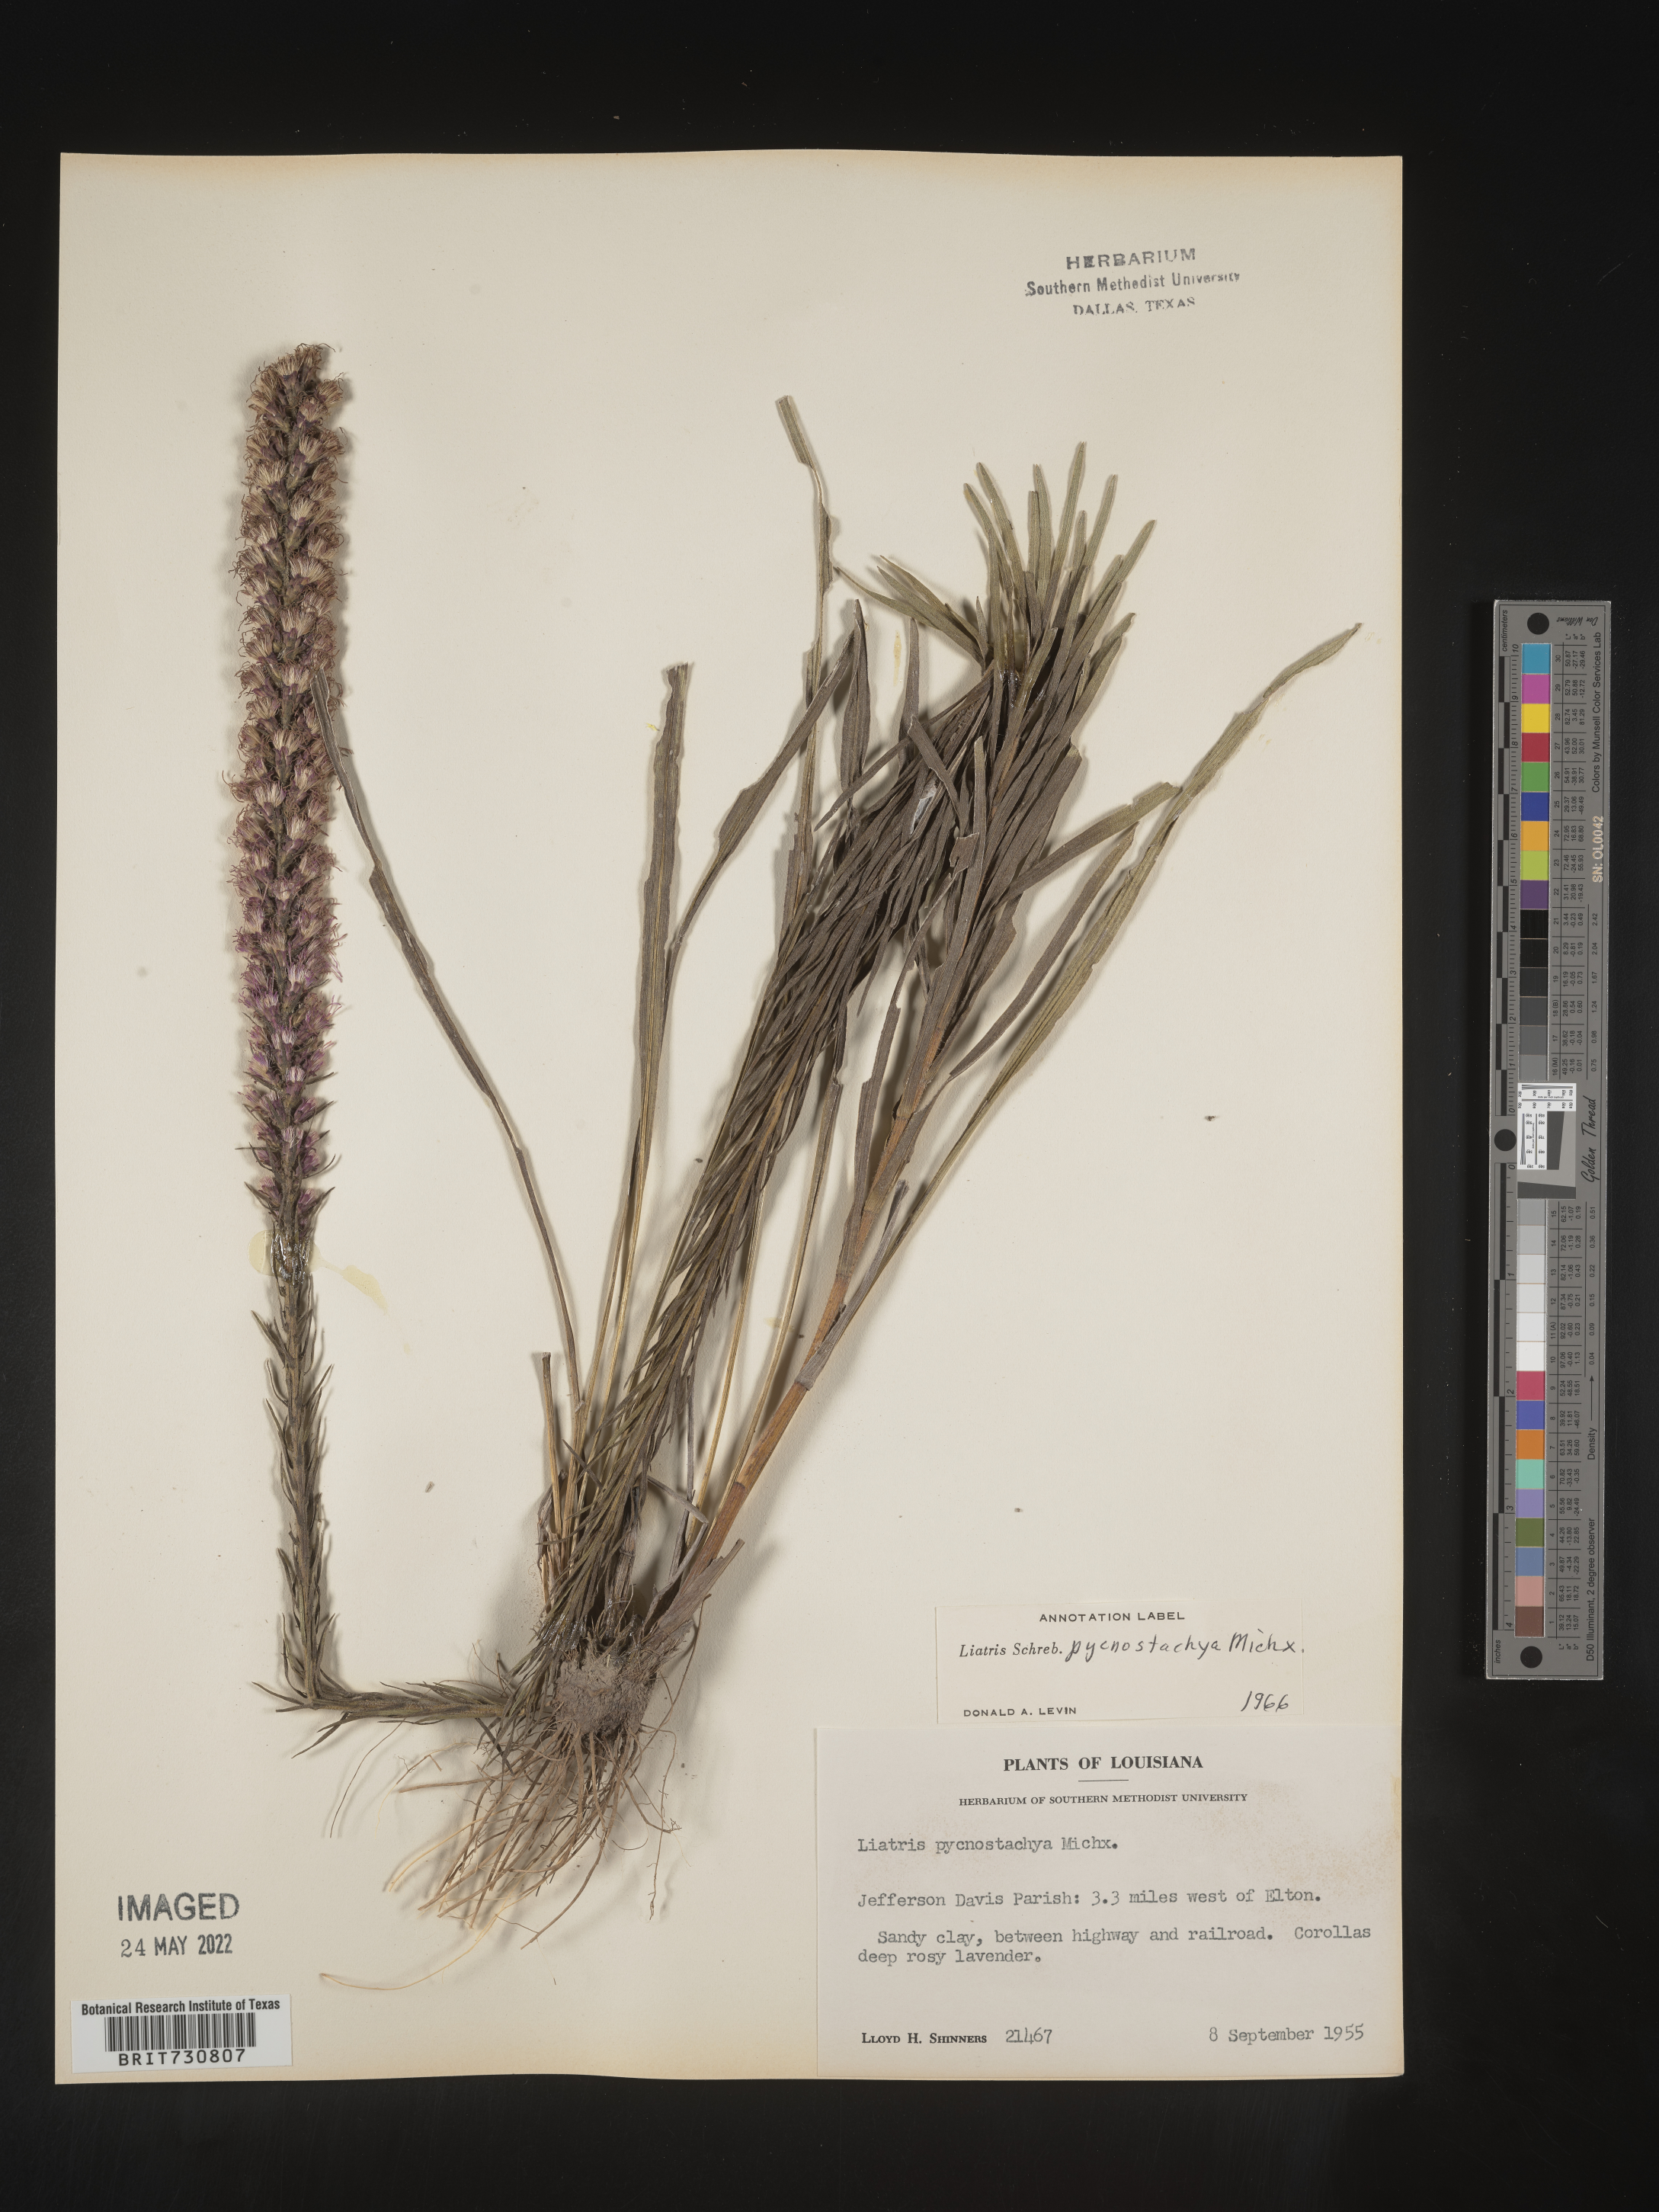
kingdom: Plantae
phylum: Tracheophyta
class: Magnoliopsida
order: Asterales
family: Asteraceae
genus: Liatris
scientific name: Liatris pycnostachya
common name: Cattail gayfeather
